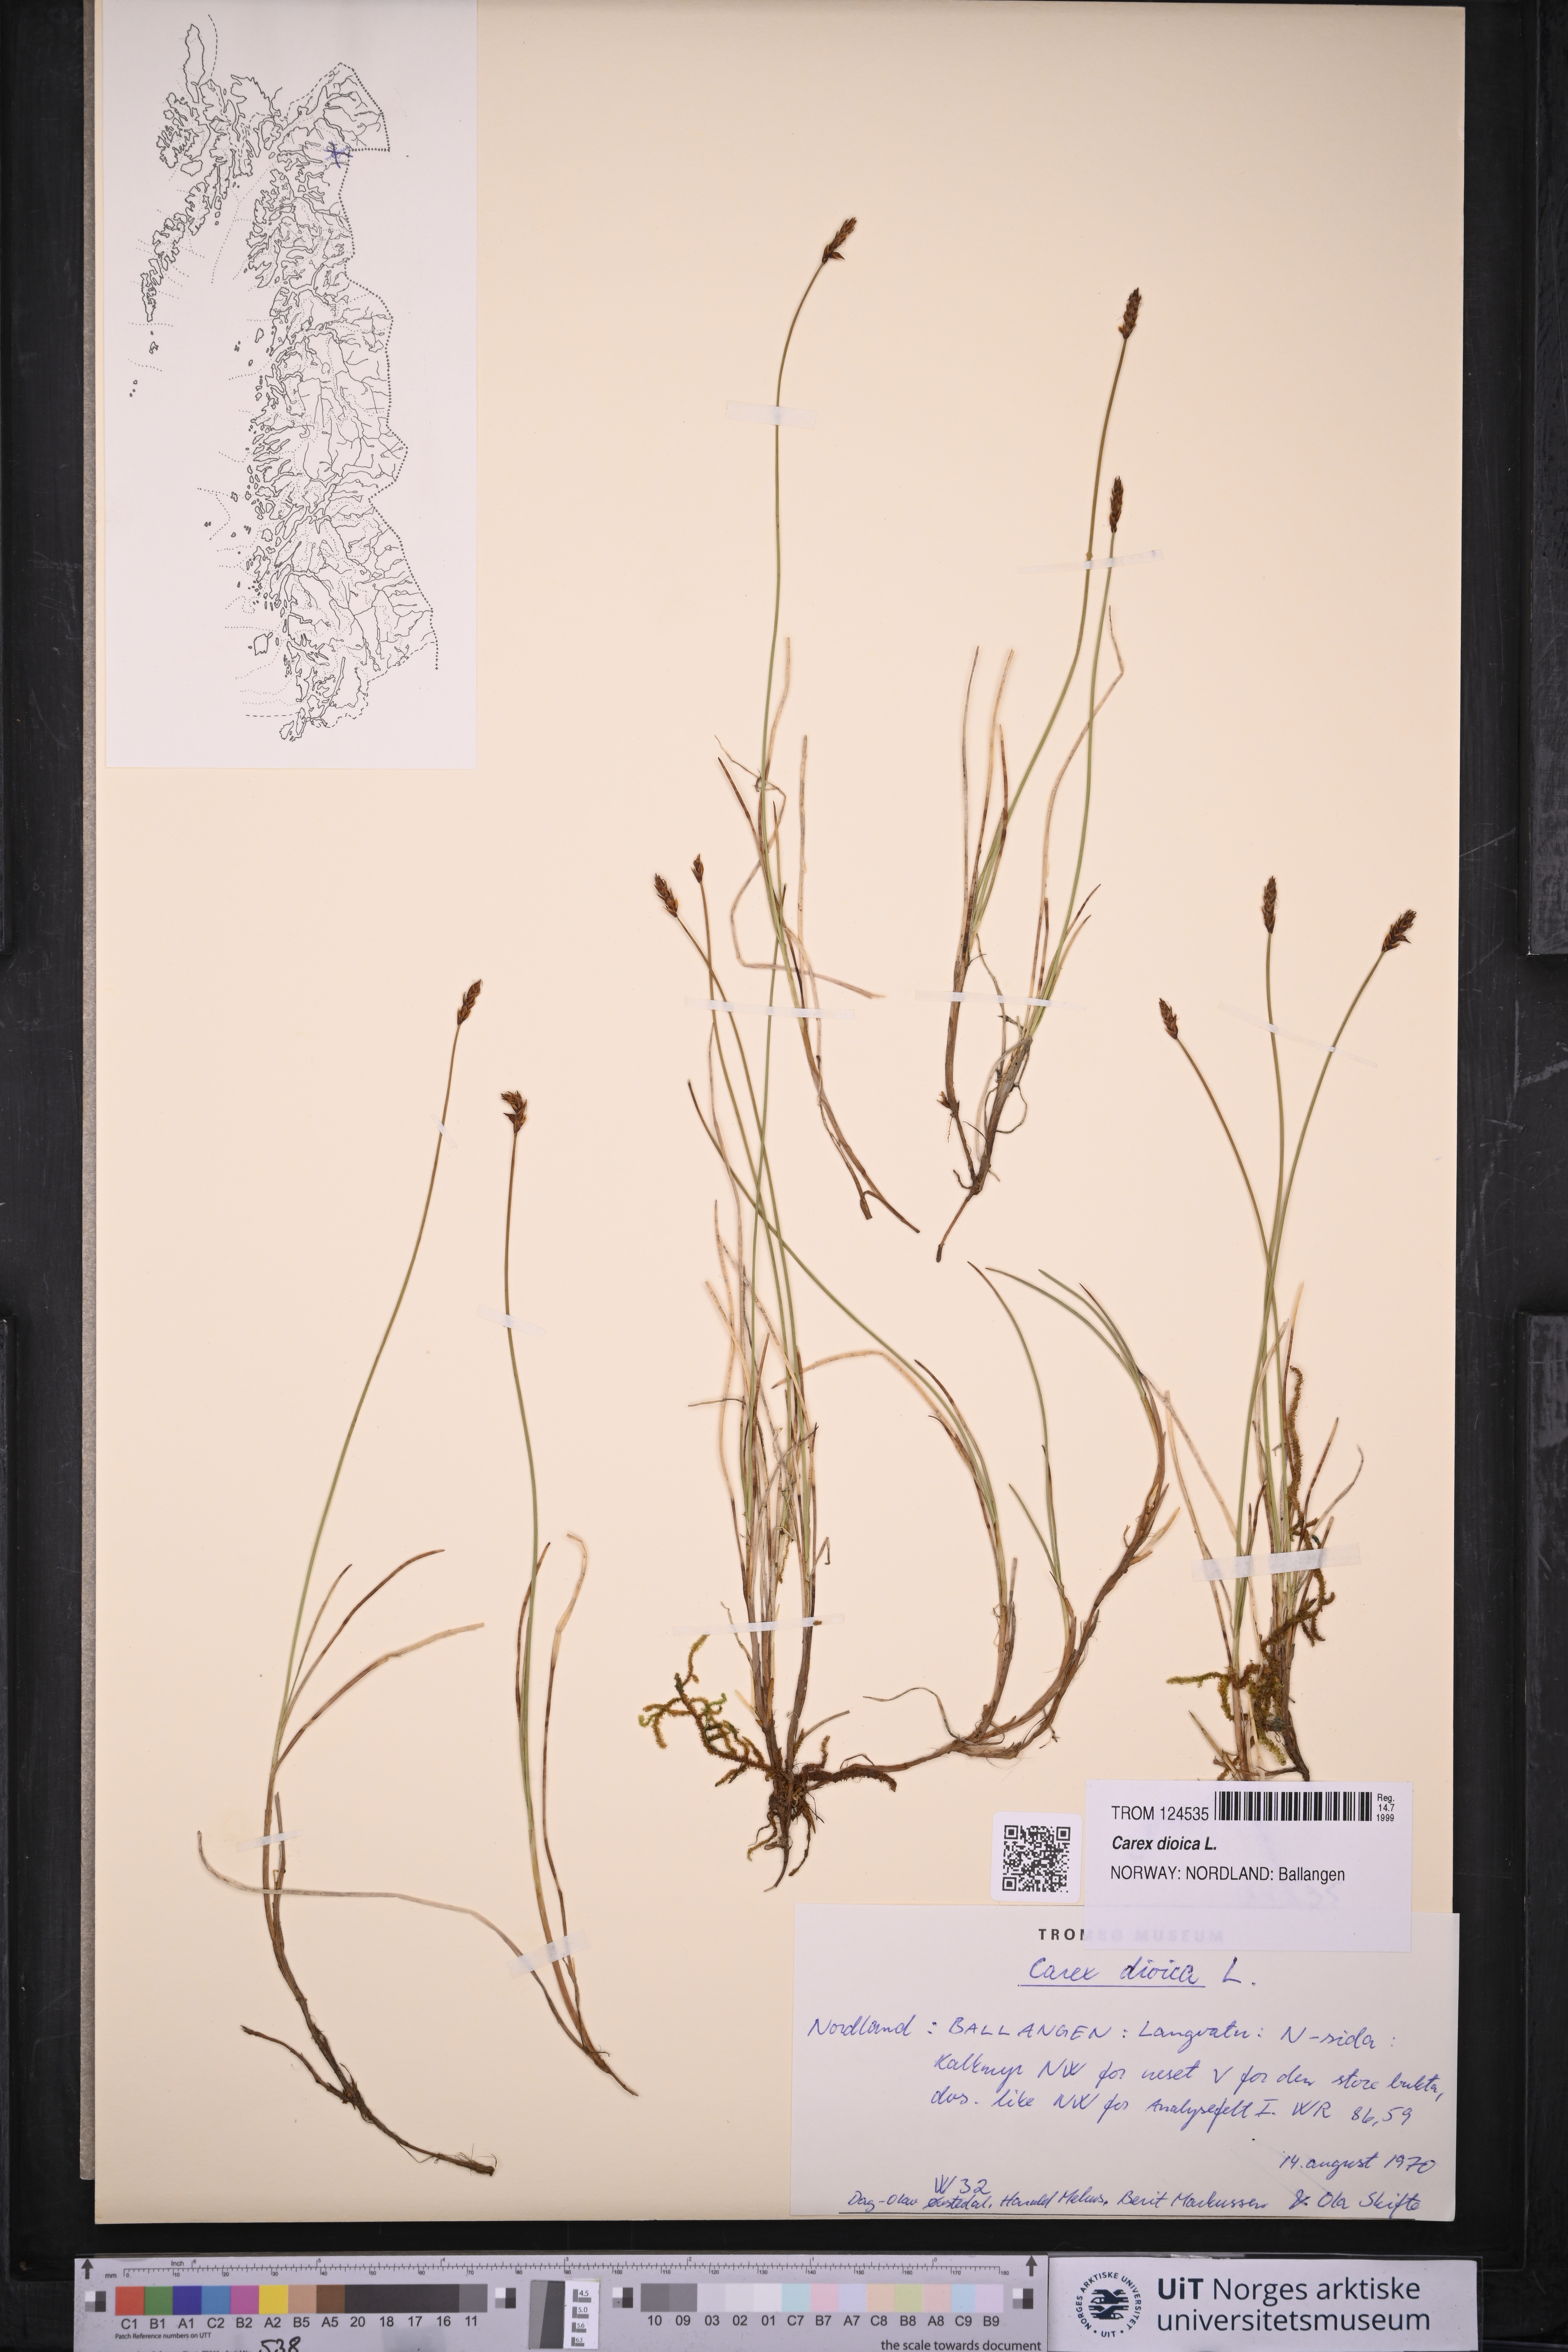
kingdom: Plantae
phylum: Tracheophyta
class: Liliopsida
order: Poales
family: Cyperaceae
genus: Carex
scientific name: Carex dioica
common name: Dioecious sedge
